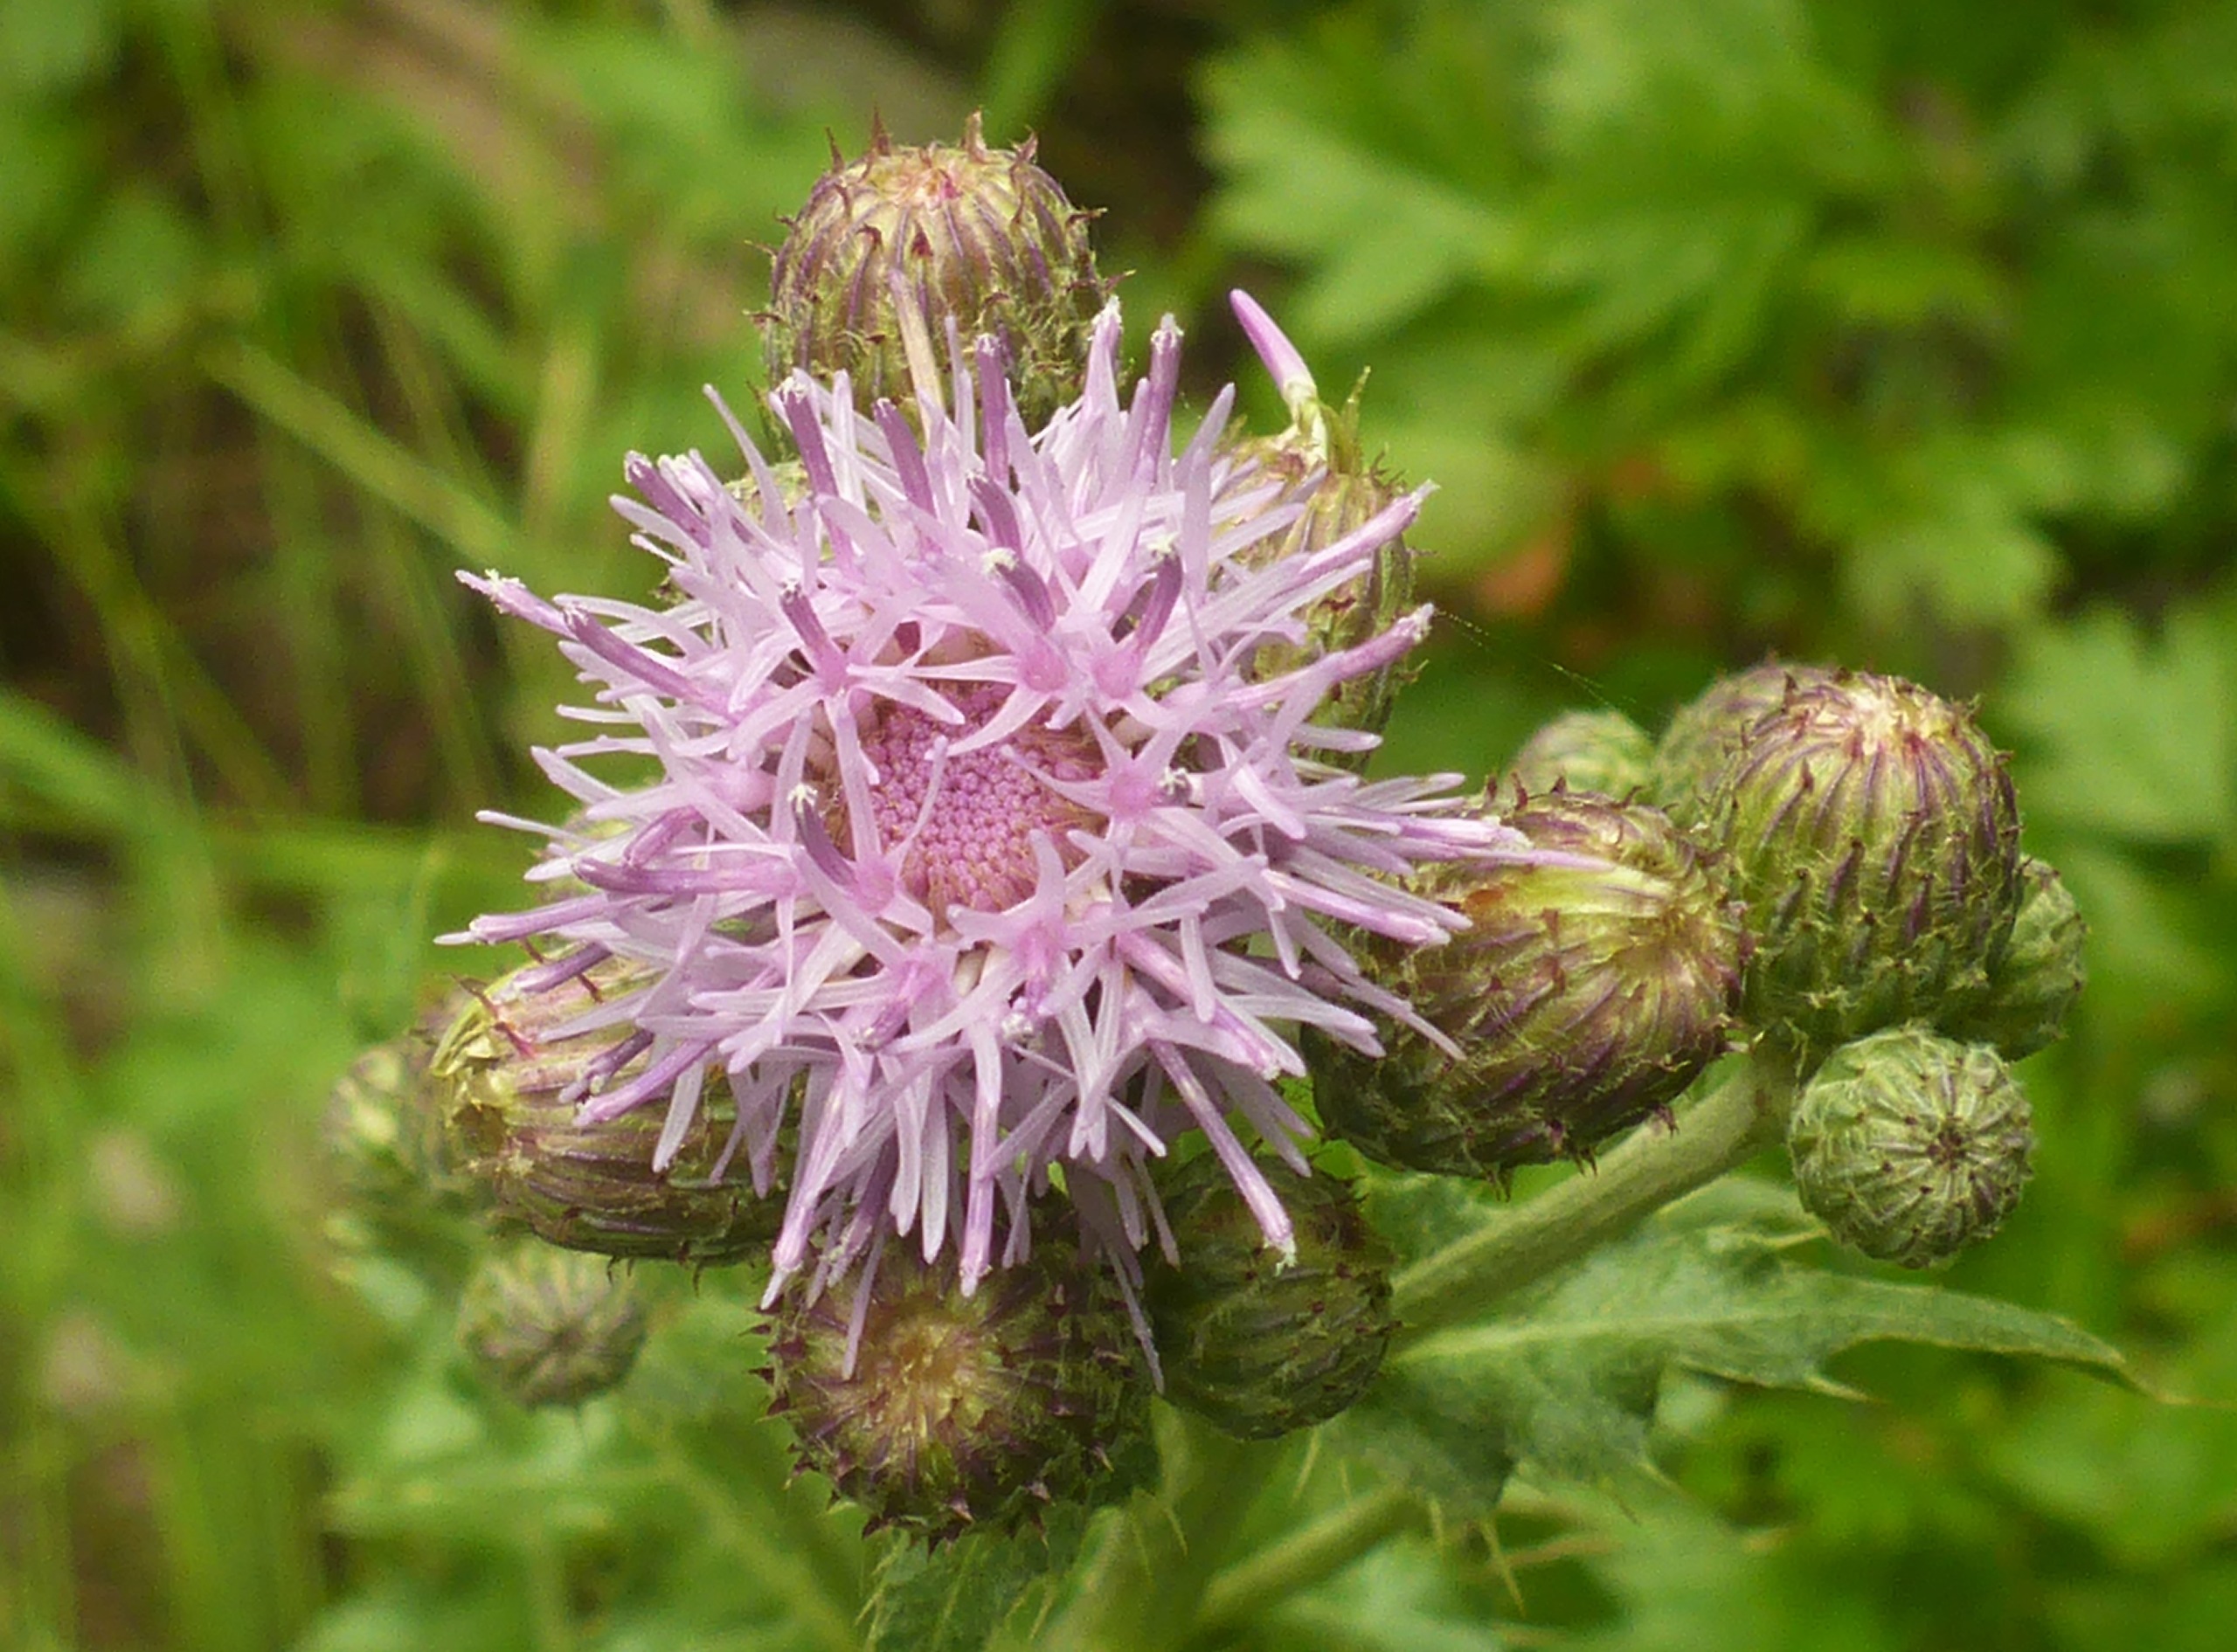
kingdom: Plantae
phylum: Tracheophyta
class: Magnoliopsida
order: Asterales
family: Asteraceae
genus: Cirsium
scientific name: Cirsium arvense
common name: Ager-tidsel
